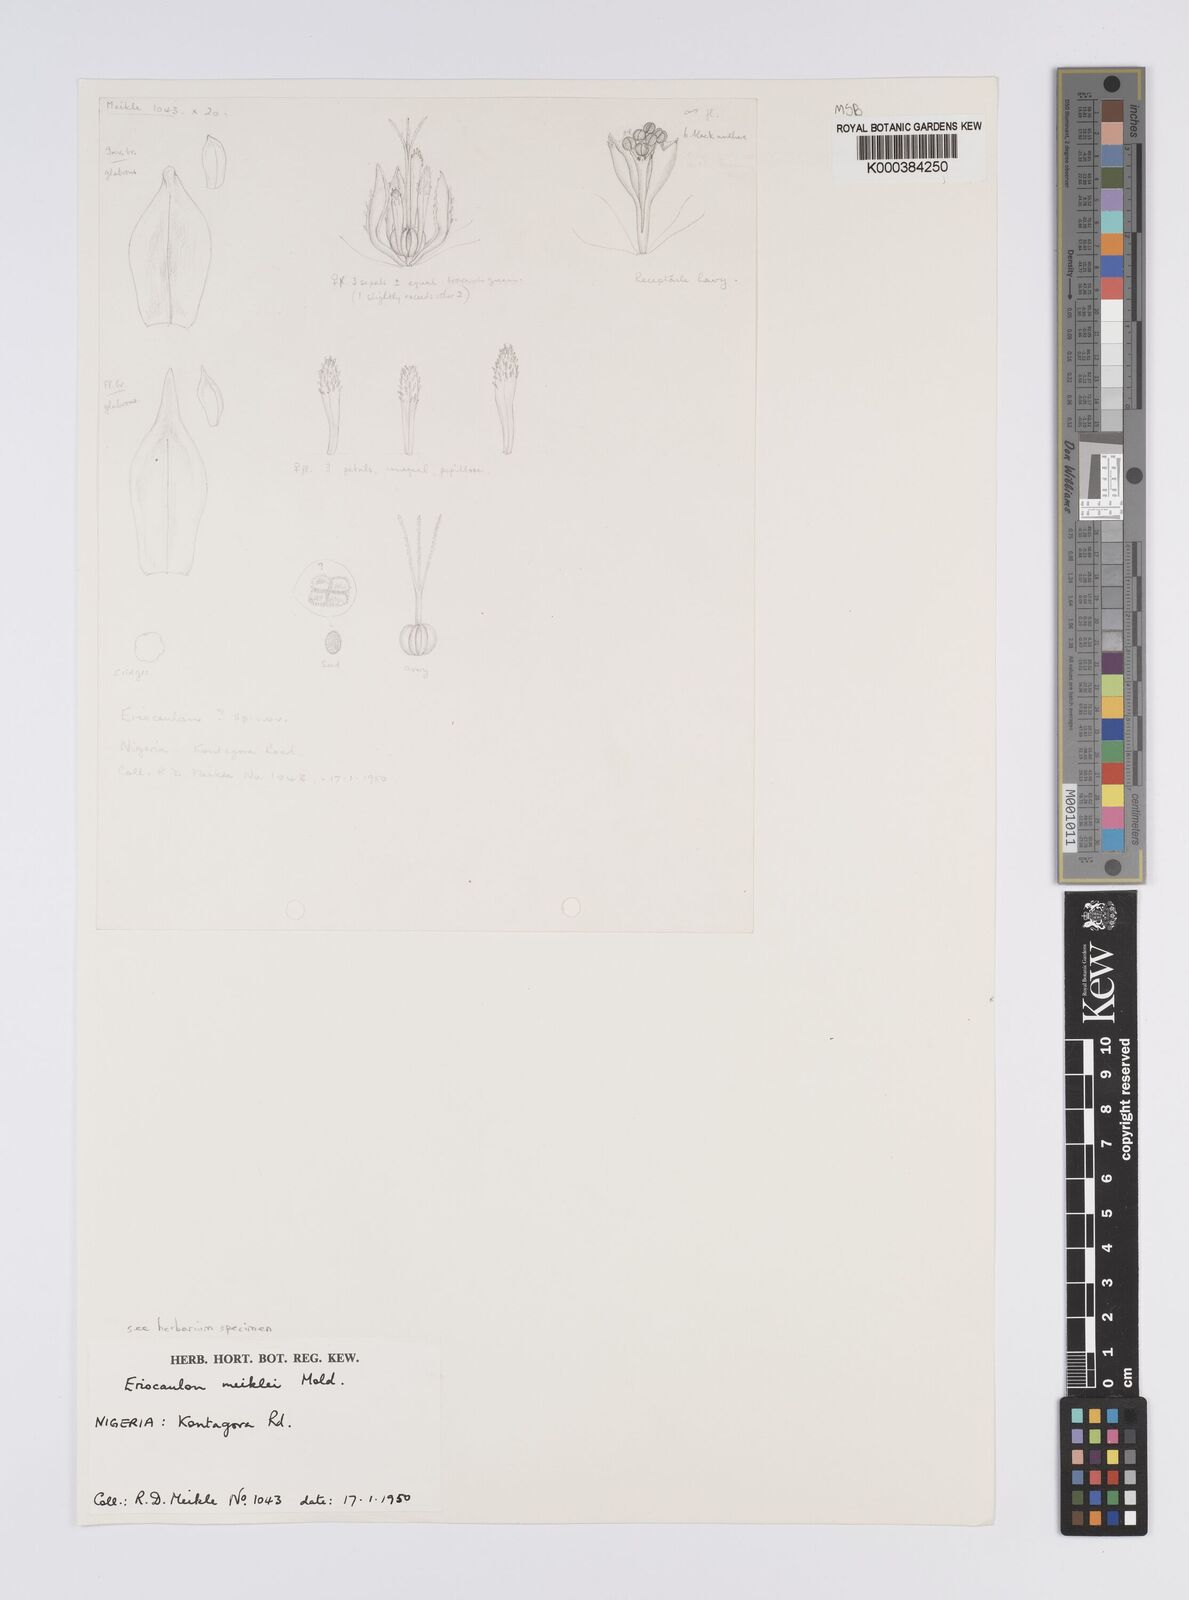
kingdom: Plantae
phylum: Tracheophyta
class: Liliopsida
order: Poales
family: Eriocaulaceae
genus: Eriocaulon
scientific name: Eriocaulon meiklei
